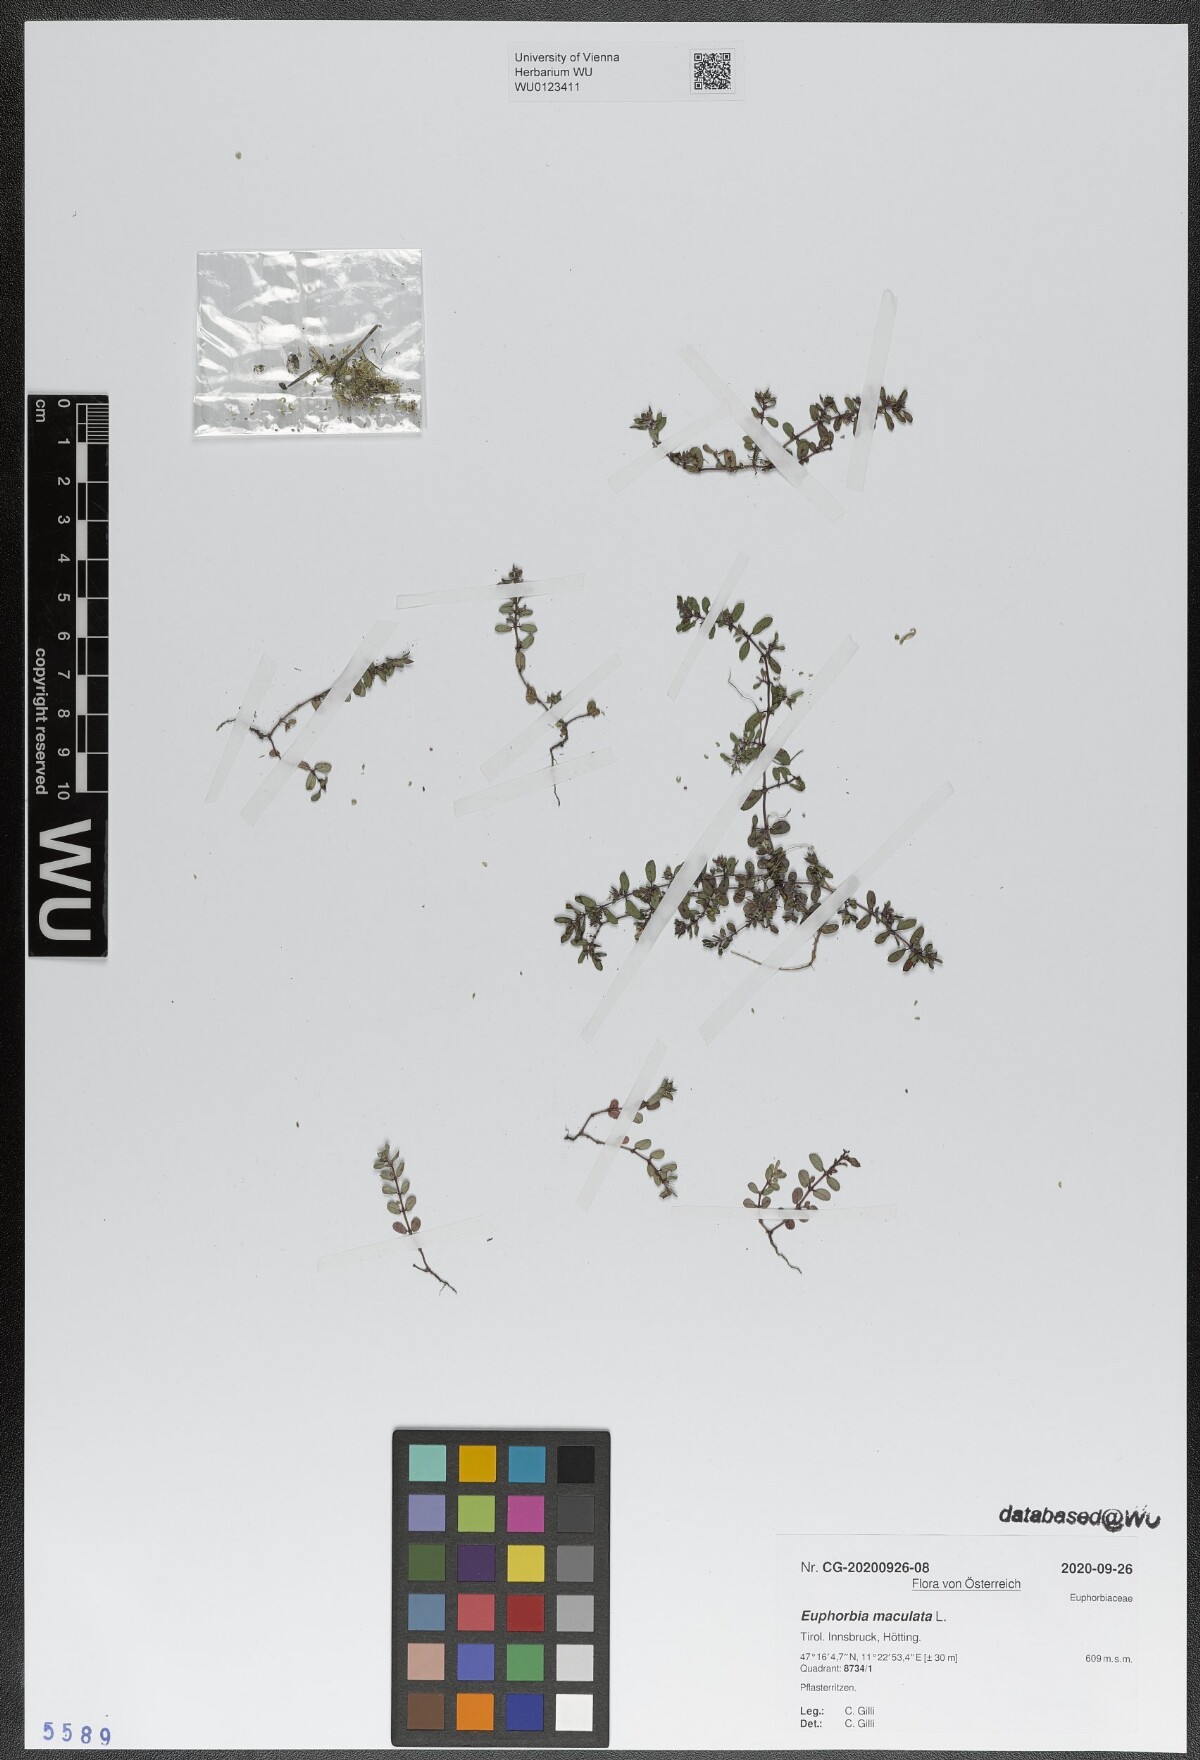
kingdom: Plantae
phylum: Tracheophyta
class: Magnoliopsida
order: Malpighiales
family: Euphorbiaceae
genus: Euphorbia
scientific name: Euphorbia maculata
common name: Spotted spurge
